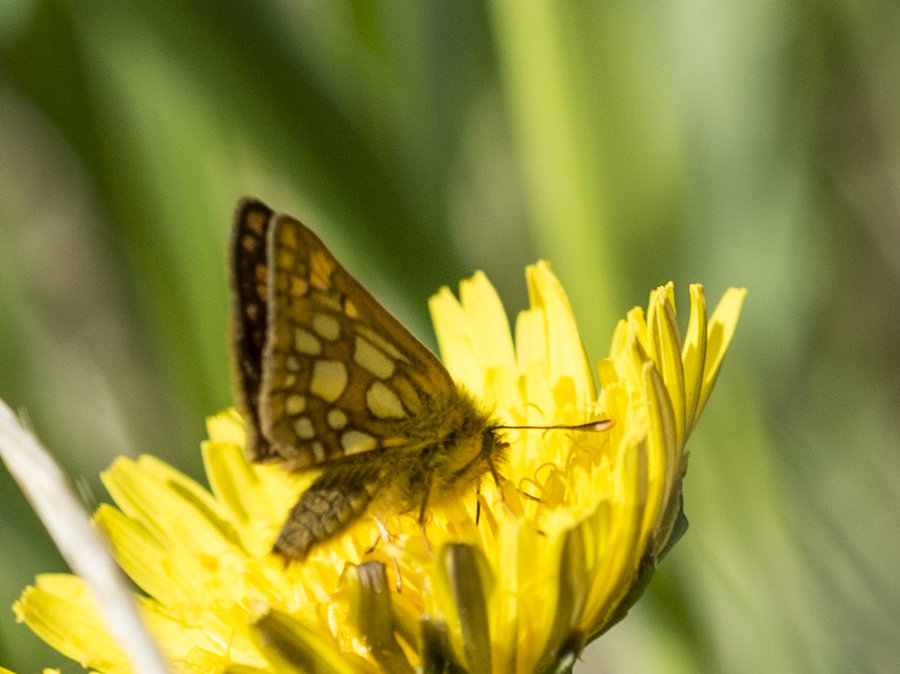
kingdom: Animalia
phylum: Arthropoda
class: Insecta
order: Lepidoptera
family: Hesperiidae
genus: Carterocephalus
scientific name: Carterocephalus palaemon
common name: Chequered Skipper
